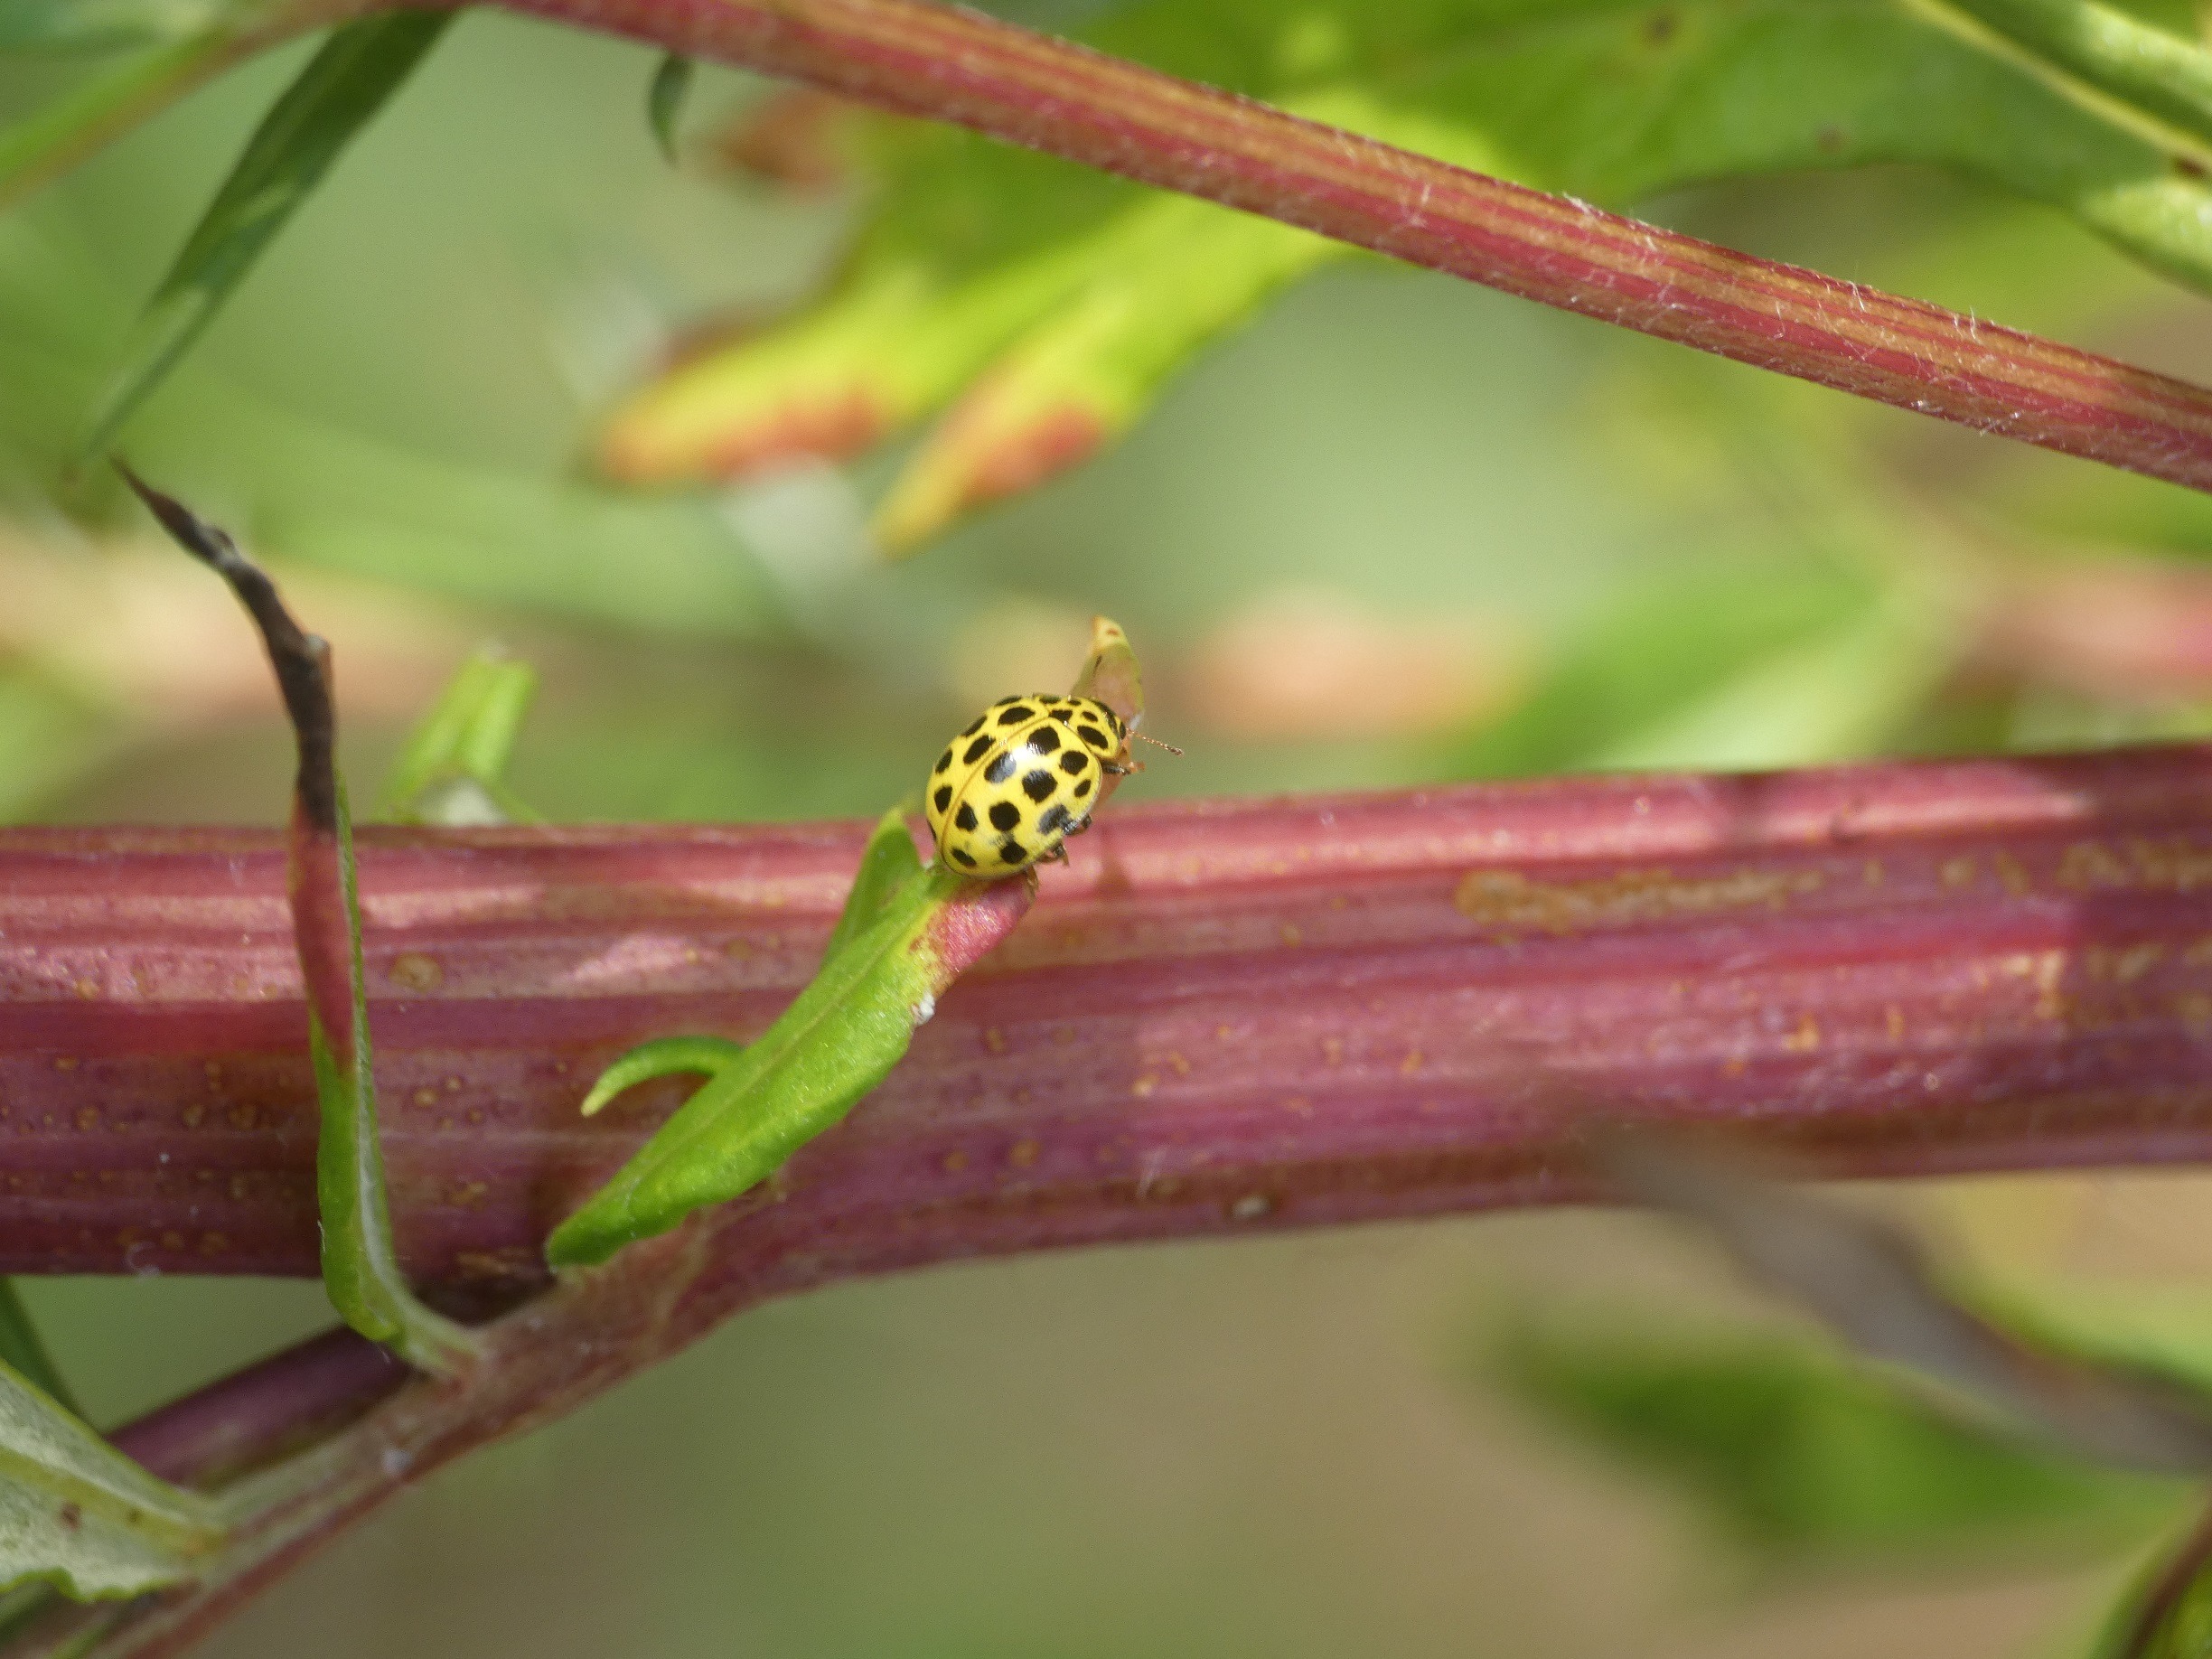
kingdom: Animalia
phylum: Arthropoda
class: Insecta
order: Coleoptera
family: Coccinellidae
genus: Psyllobora
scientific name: Psyllobora vigintiduopunctata
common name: Toogtyveplettet mariehøne
